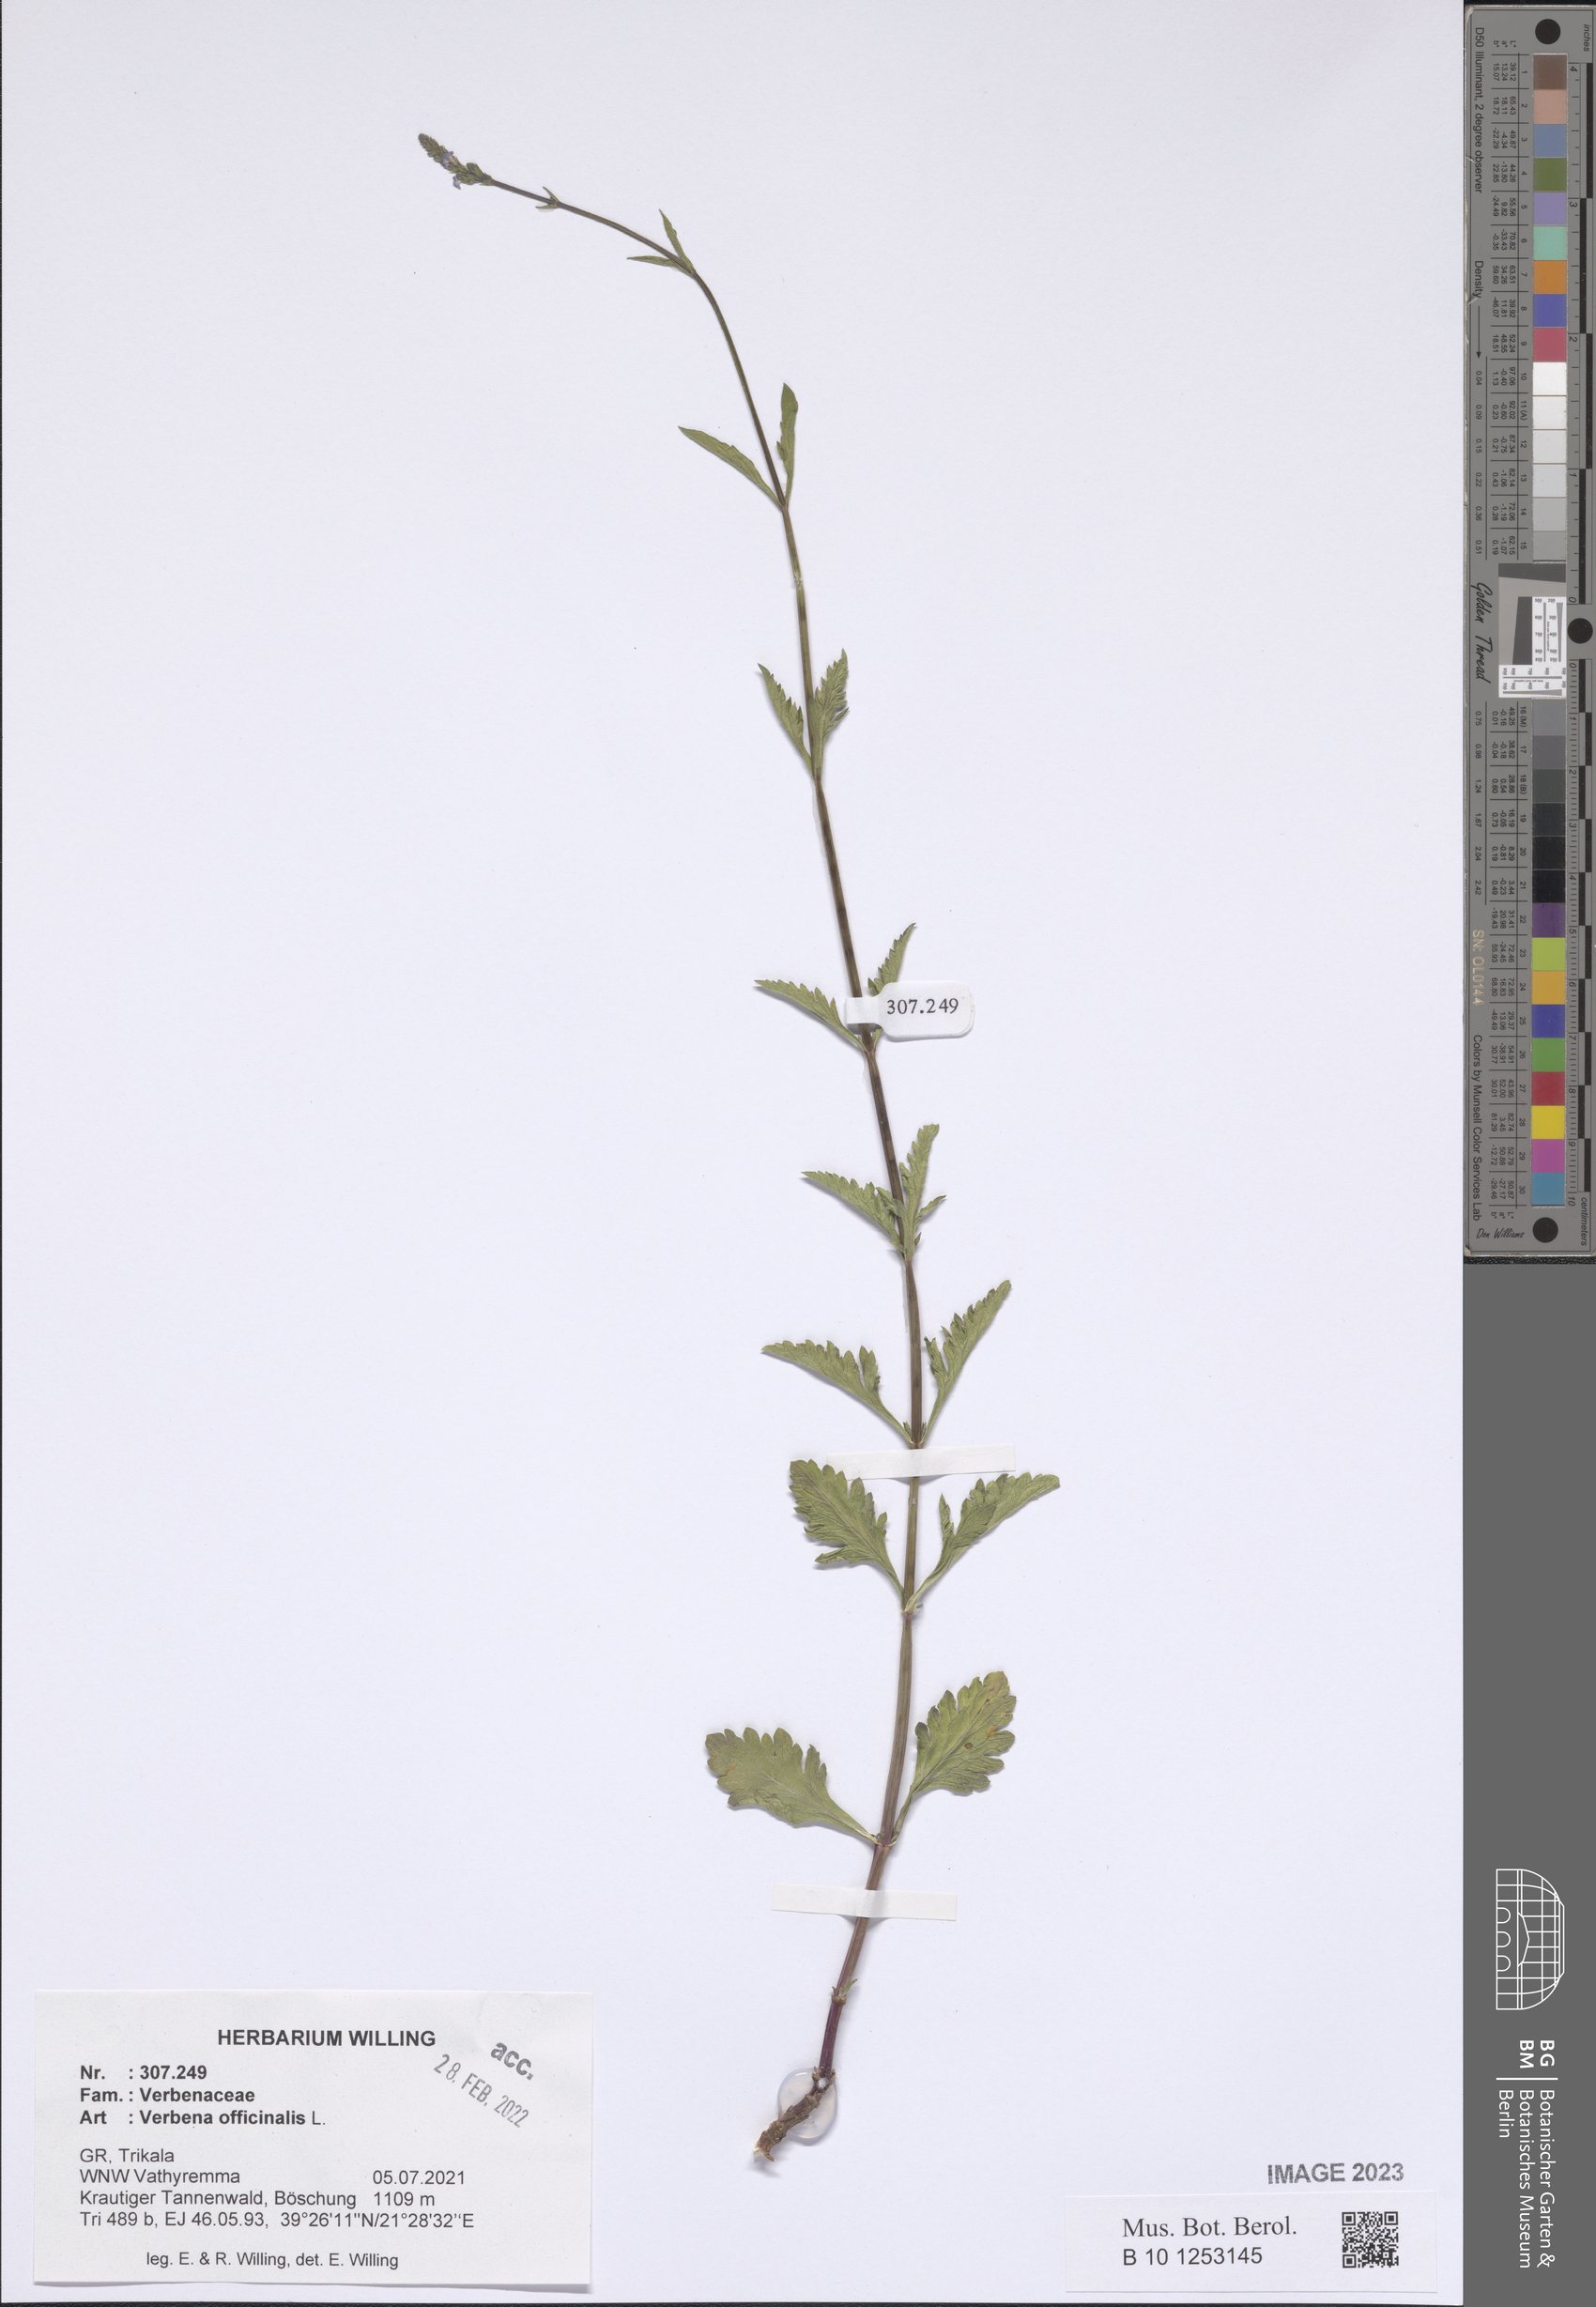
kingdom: Plantae
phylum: Tracheophyta
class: Magnoliopsida
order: Lamiales
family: Verbenaceae
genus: Verbena
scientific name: Verbena officinalis
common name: Vervain
